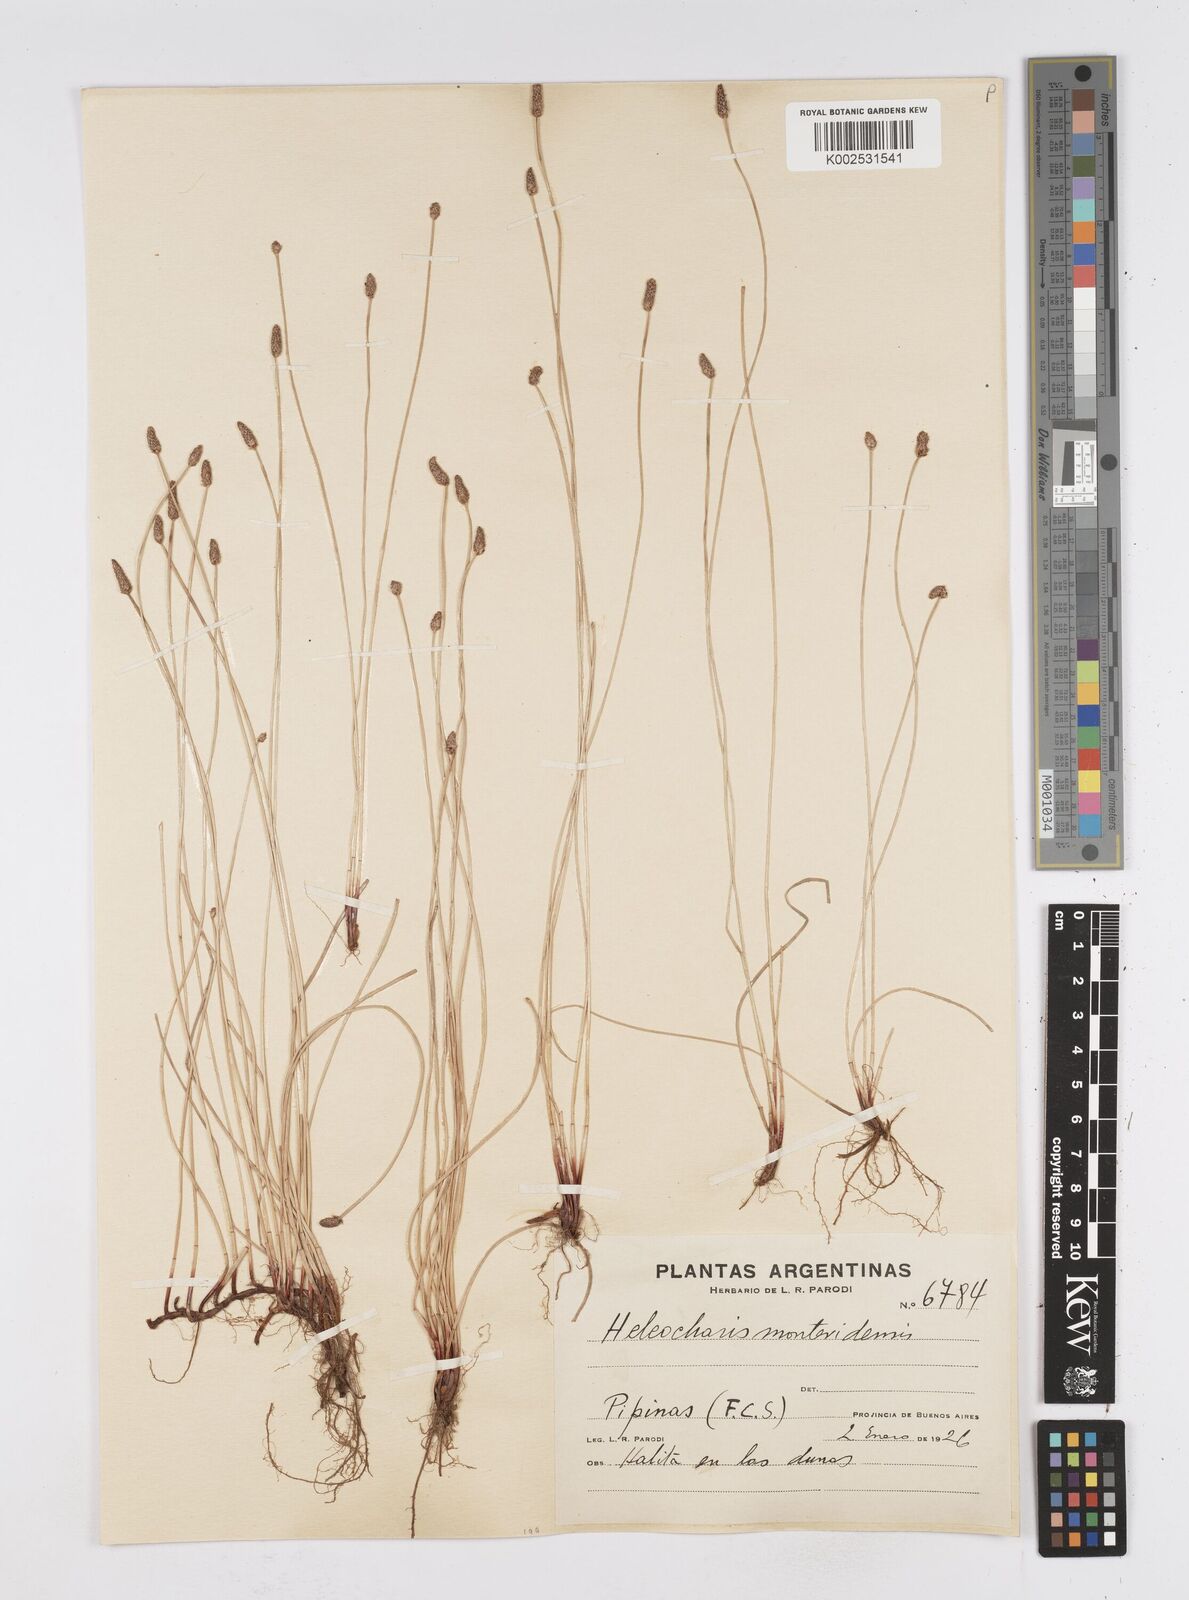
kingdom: Plantae
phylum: Tracheophyta
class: Liliopsida
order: Poales
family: Cyperaceae
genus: Eleocharis
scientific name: Eleocharis montevidensis
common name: Sand spike-rush
